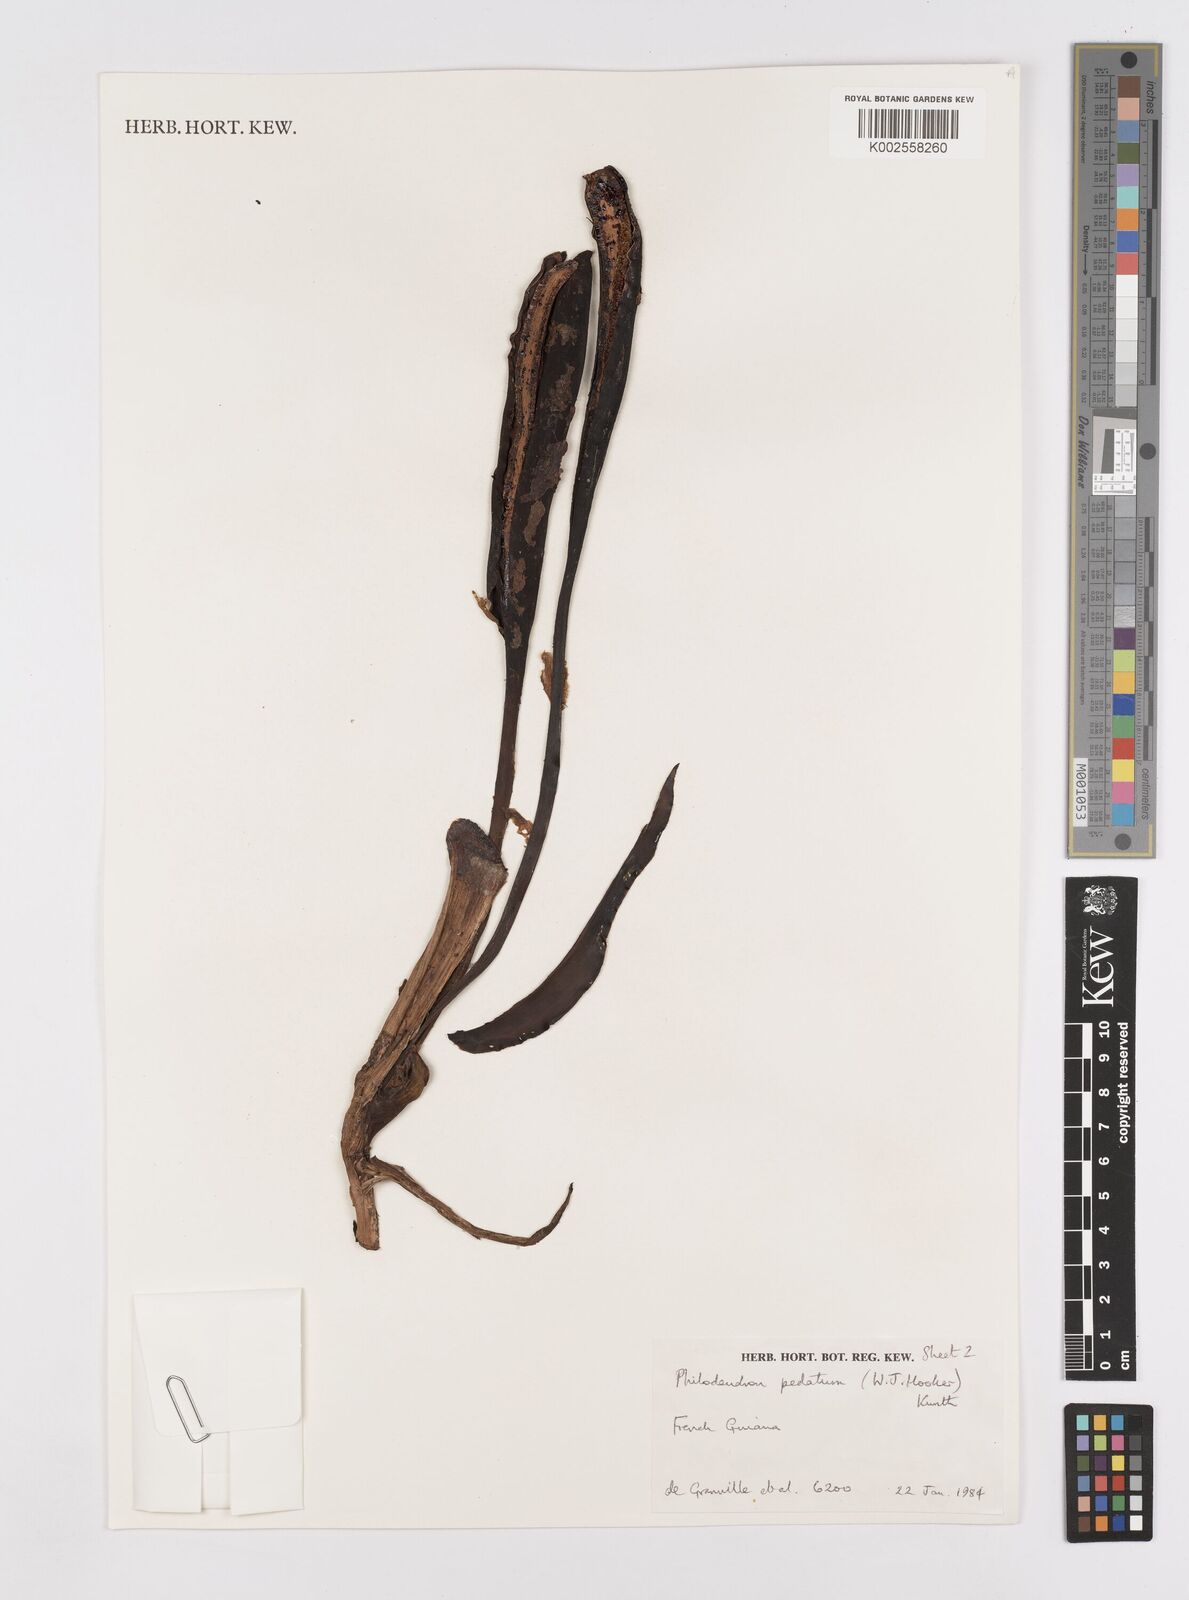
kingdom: Plantae
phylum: Tracheophyta
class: Liliopsida
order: Alismatales
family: Araceae
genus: Philodendron
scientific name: Philodendron pedatum
